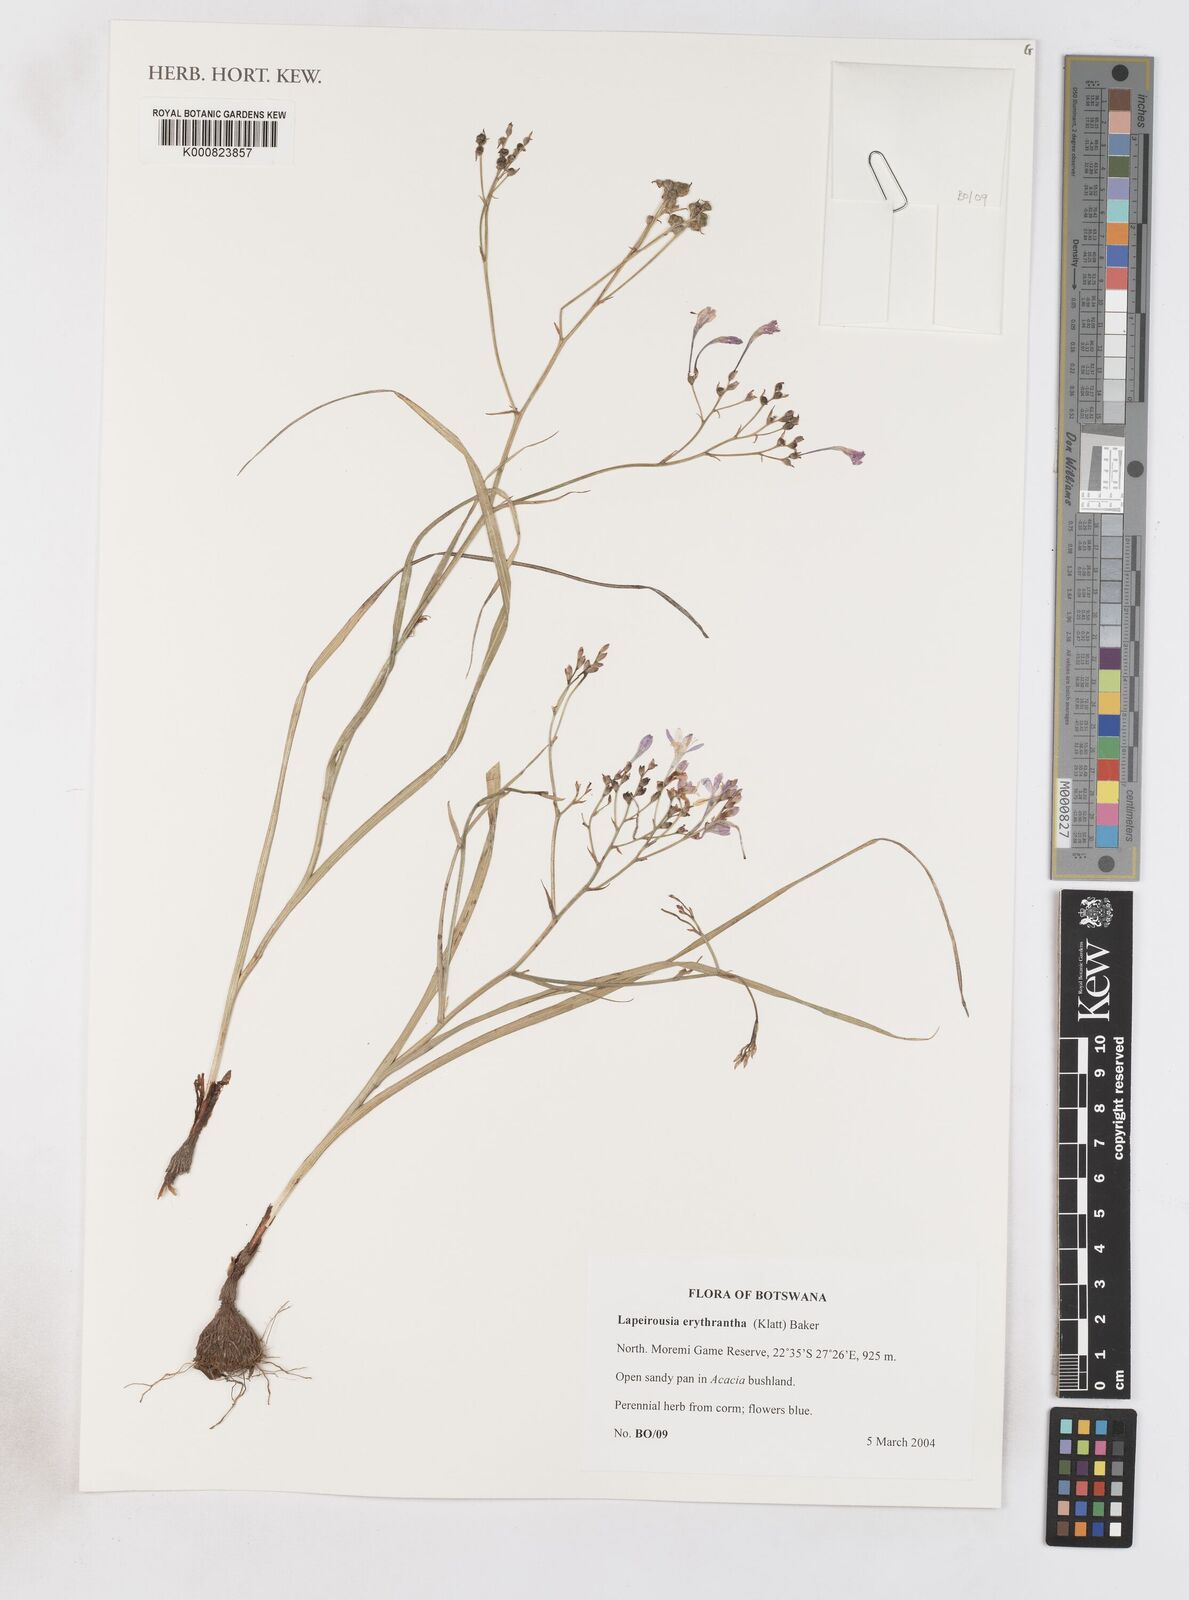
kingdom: Plantae
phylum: Tracheophyta
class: Liliopsida
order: Asparagales
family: Iridaceae
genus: Afrosolen
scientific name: Afrosolen erythranthus
